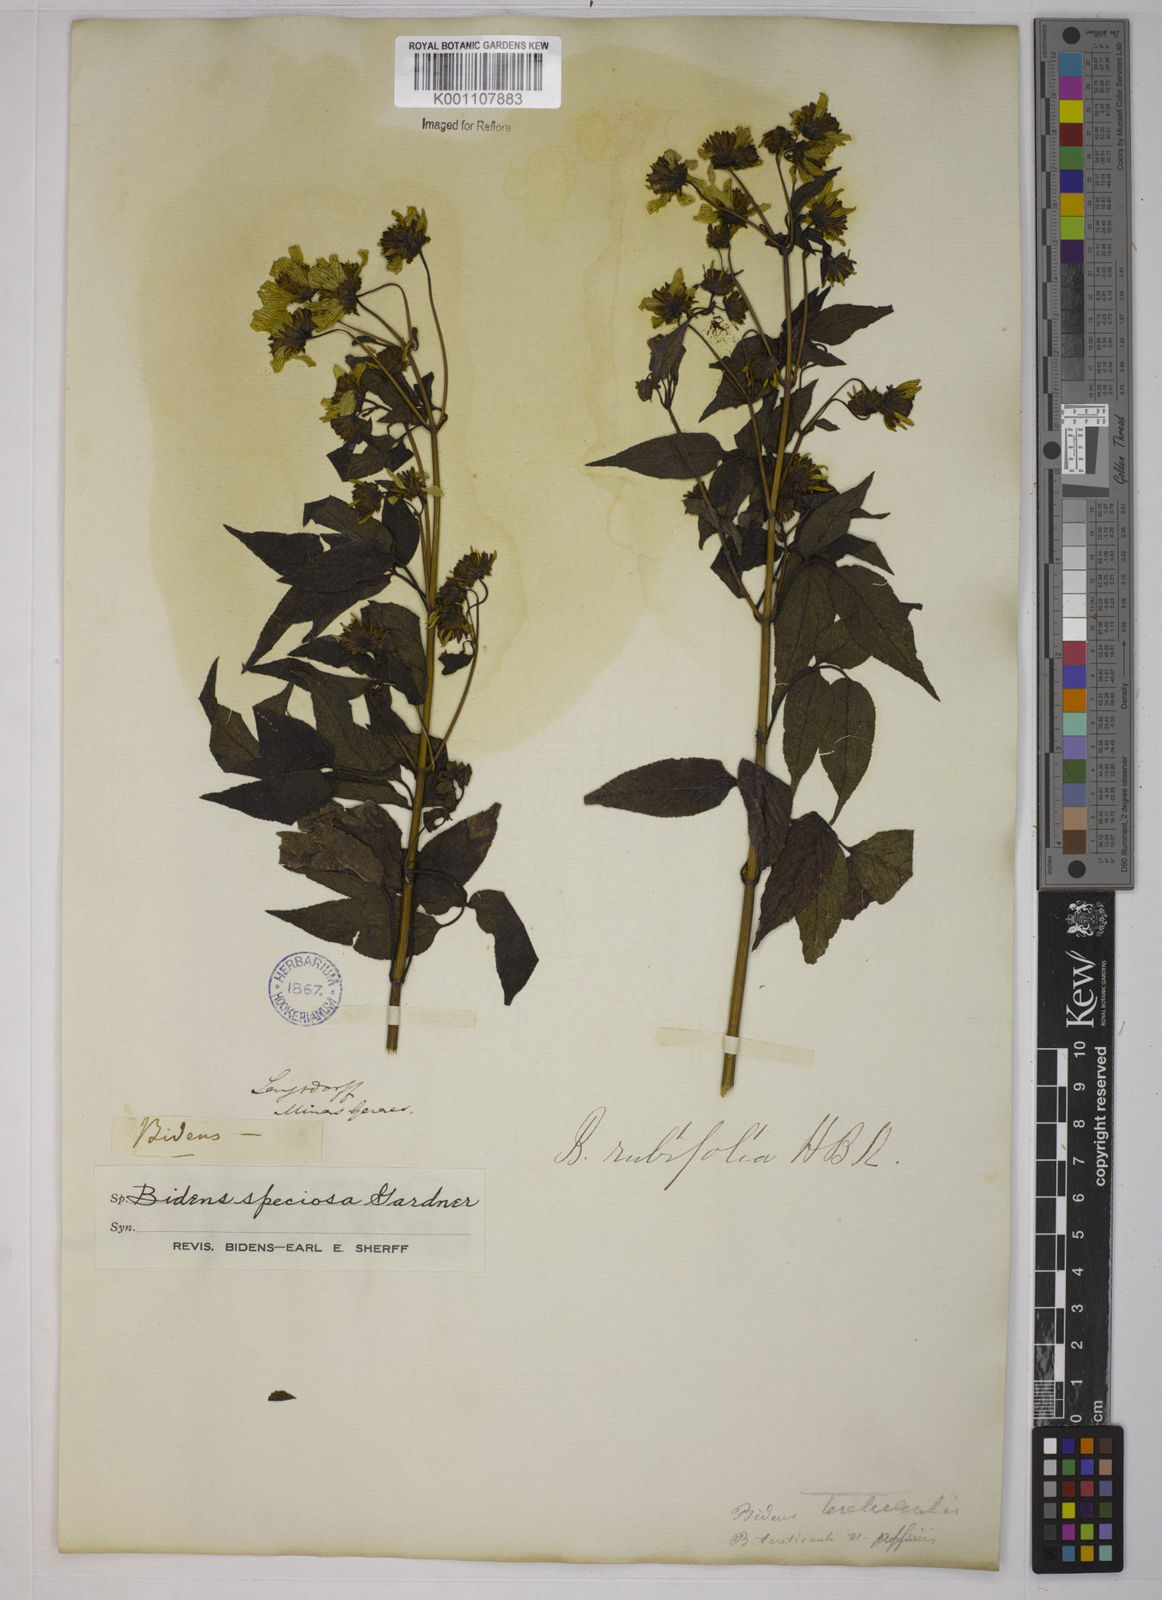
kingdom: Plantae
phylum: Tracheophyta
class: Magnoliopsida
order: Asterales
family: Asteraceae
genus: Bidens
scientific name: Bidens segetum
